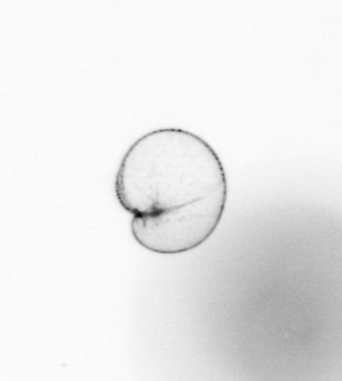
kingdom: Chromista
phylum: Myzozoa
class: Dinophyceae
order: Noctilucales
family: Noctilucaceae
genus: Noctiluca
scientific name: Noctiluca scintillans
